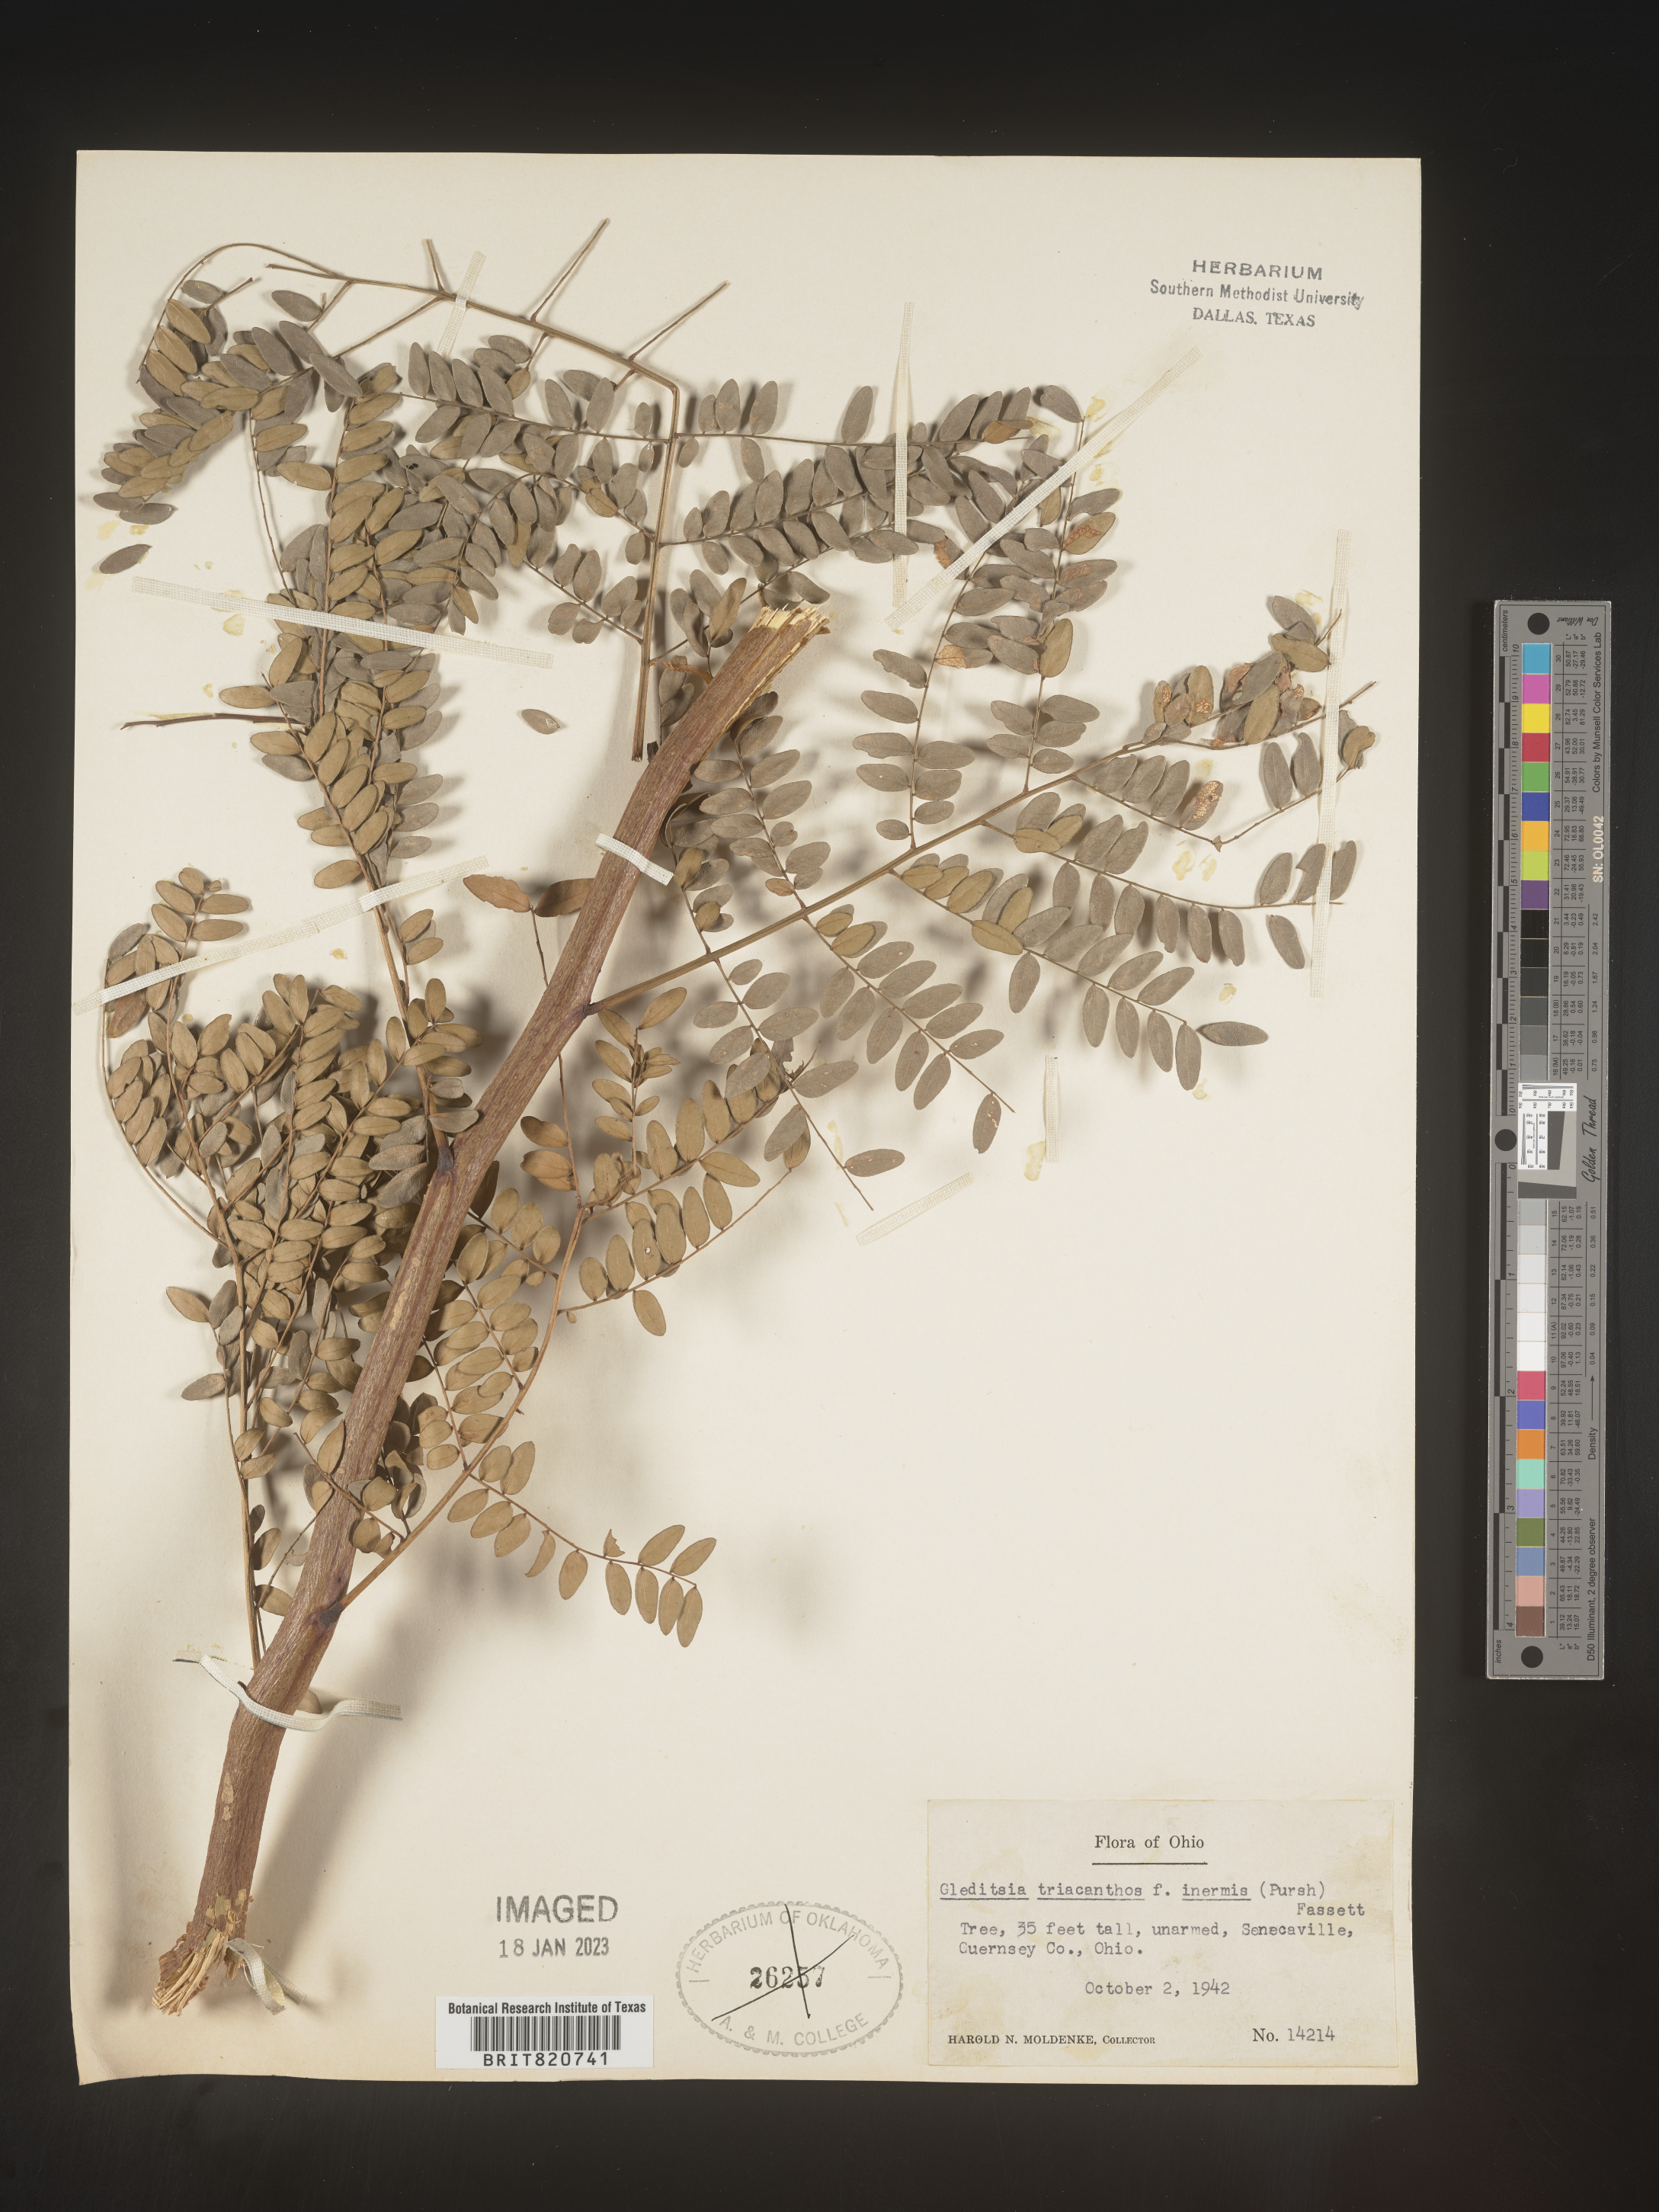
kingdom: Plantae
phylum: Tracheophyta
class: Magnoliopsida
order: Fabales
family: Fabaceae
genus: Gleditsia
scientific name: Gleditsia triacanthos
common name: Common honeylocust
